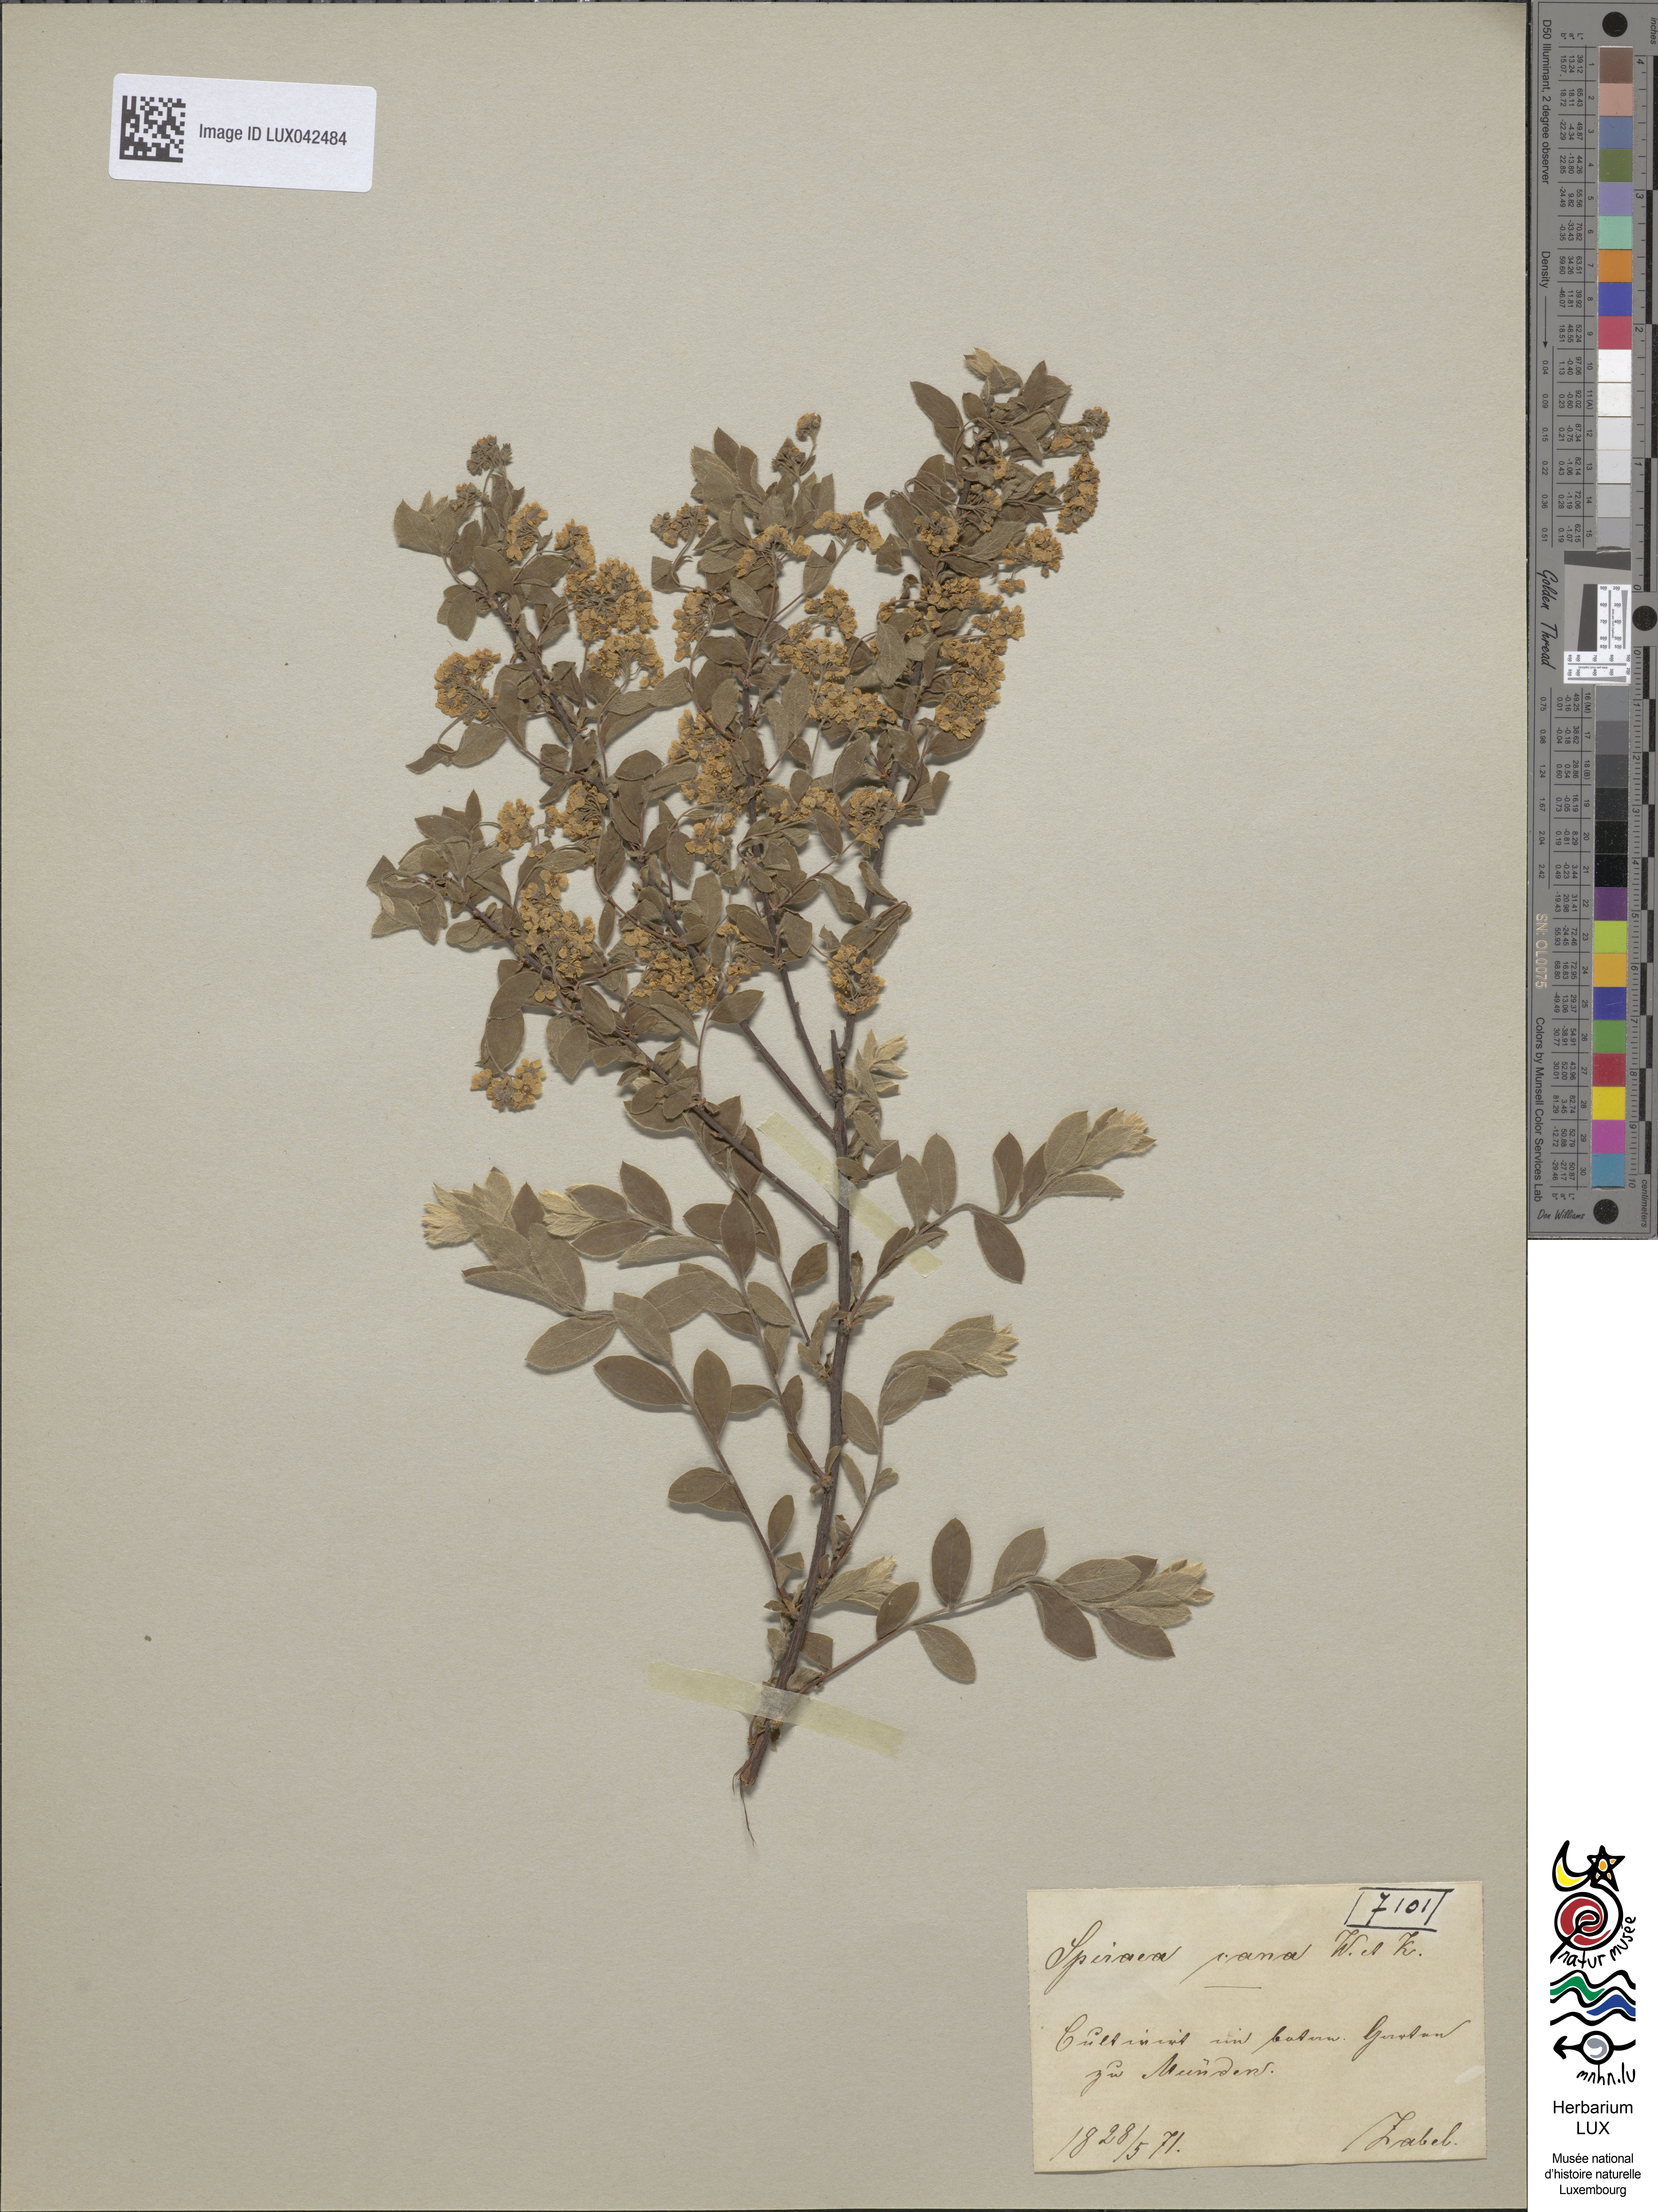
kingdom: Plantae
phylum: Tracheophyta
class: Magnoliopsida
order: Rosales
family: Rosaceae
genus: Spiraea
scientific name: Spiraea cana
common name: Grey meadowsweet
